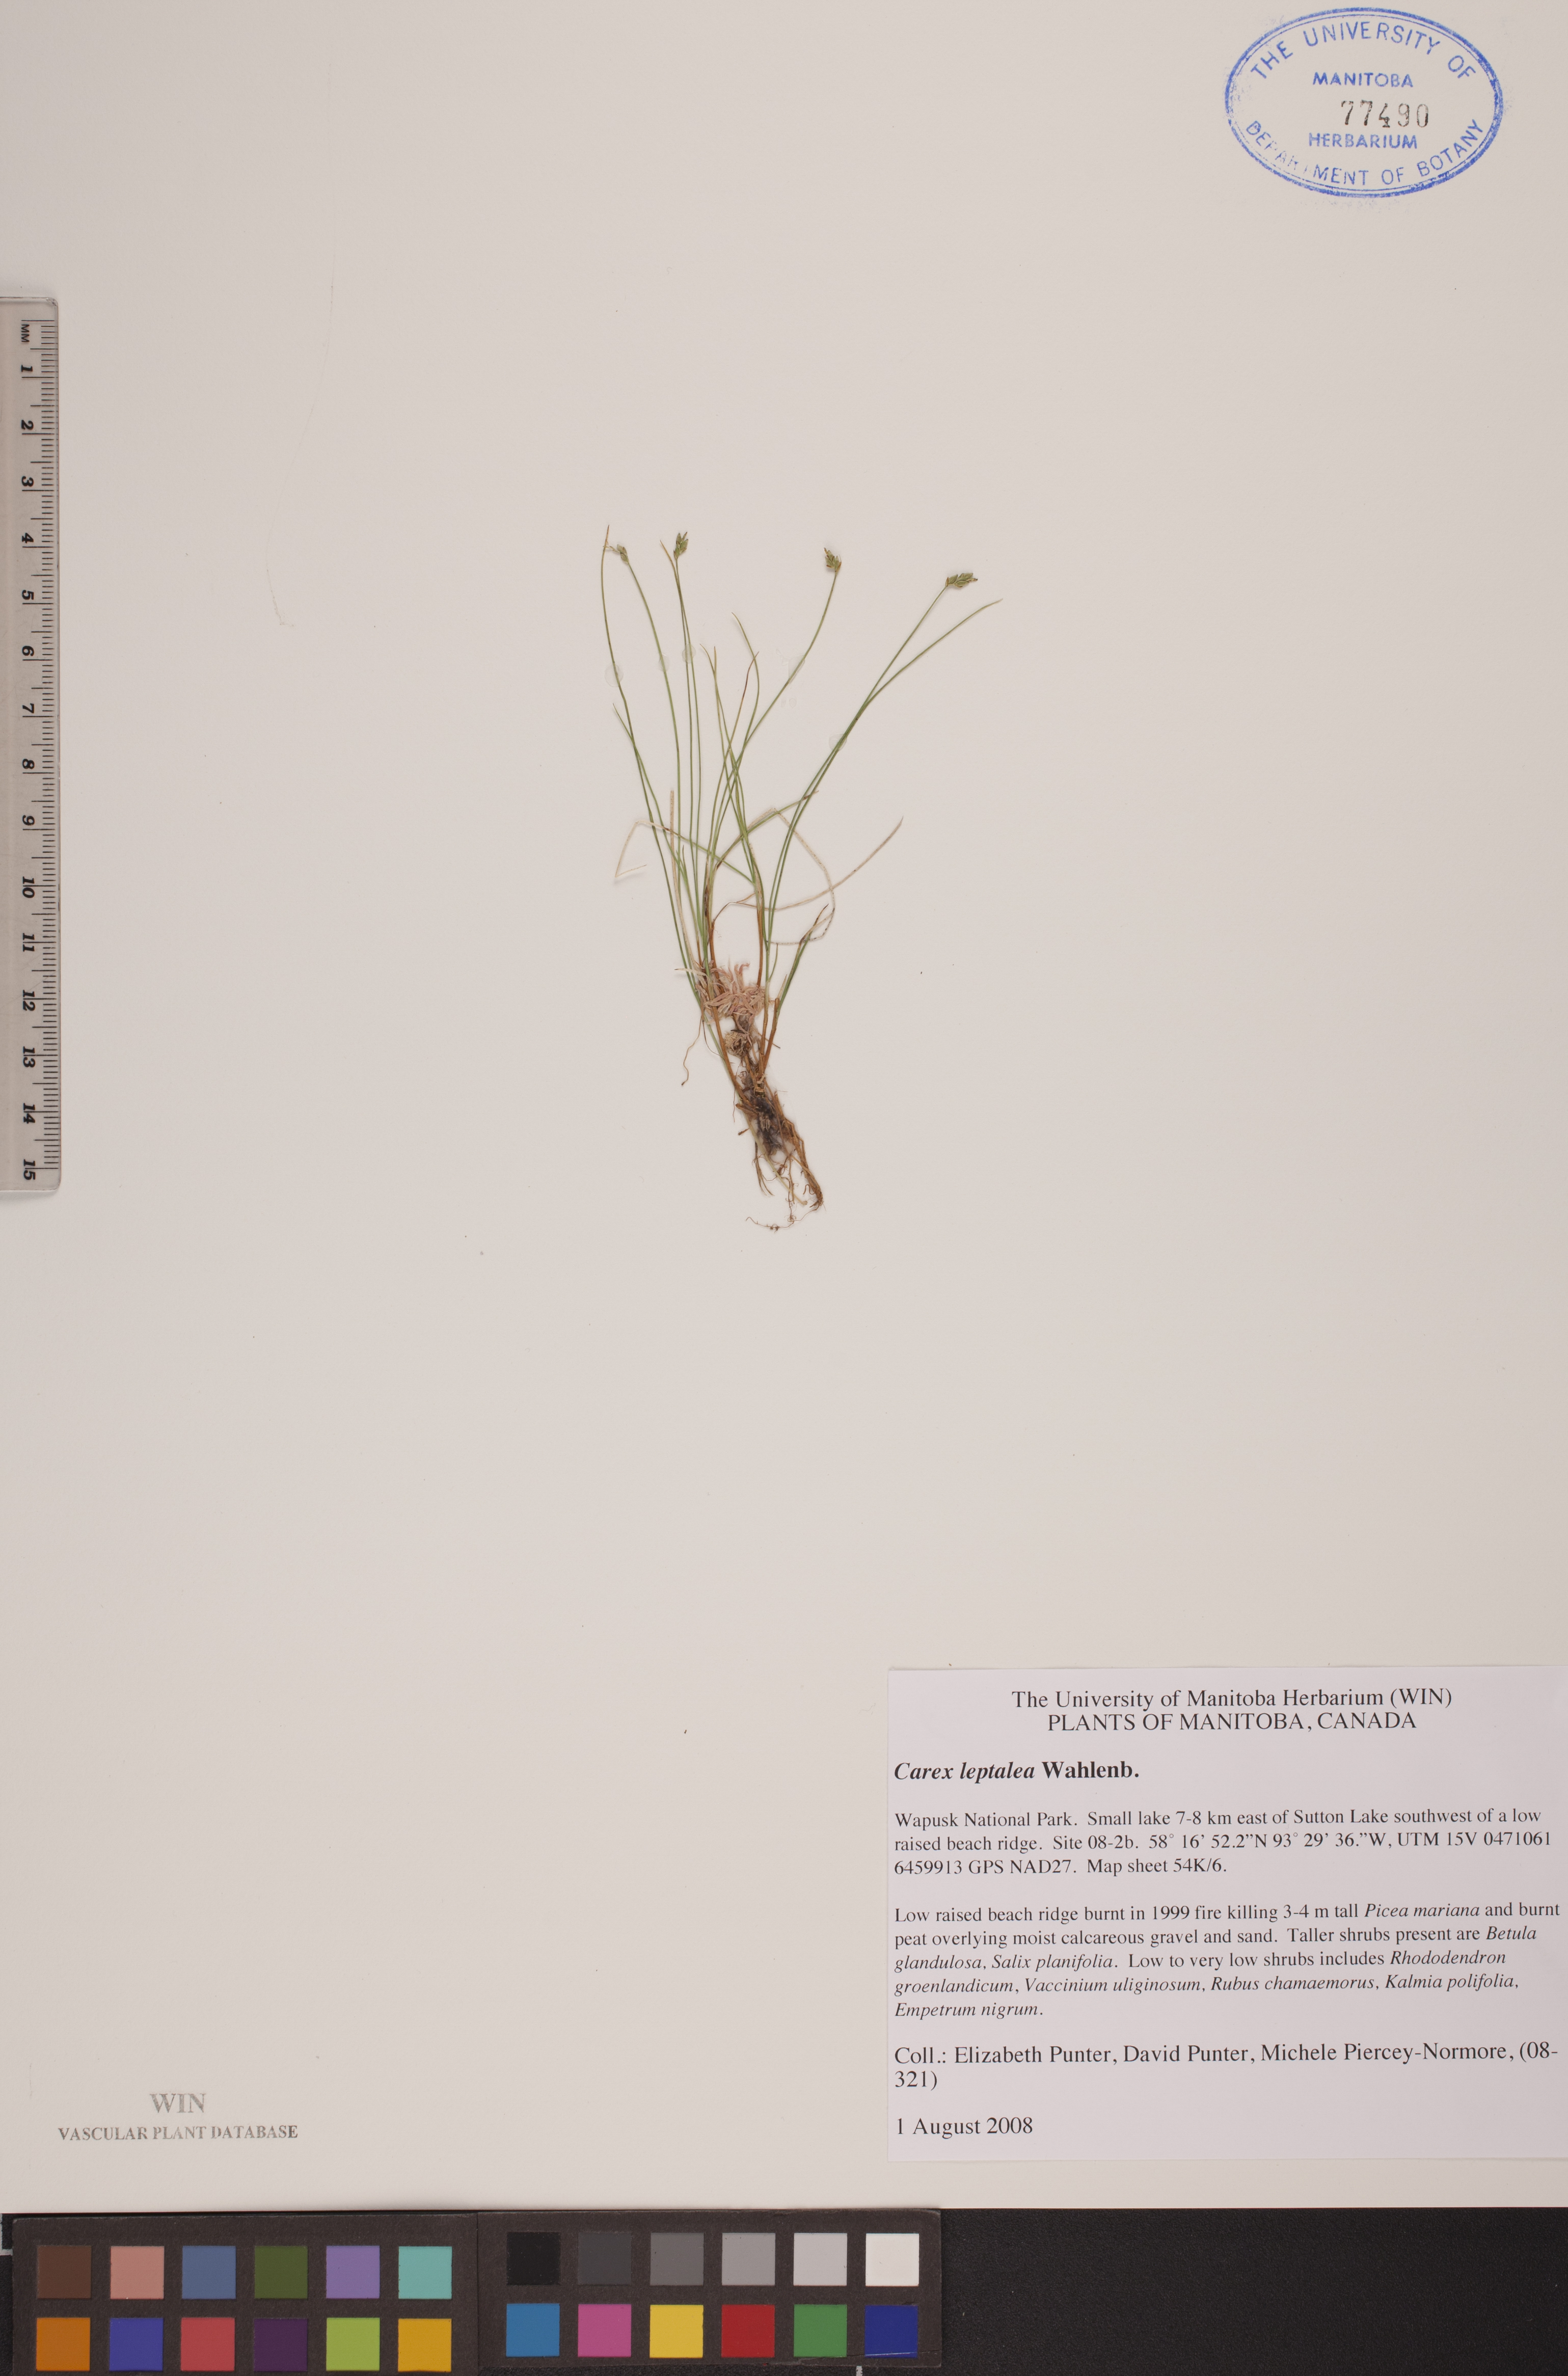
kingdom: Plantae
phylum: Tracheophyta
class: Liliopsida
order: Poales
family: Cyperaceae
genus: Carex
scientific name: Carex leptalea
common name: Bristly-stalked sedge
